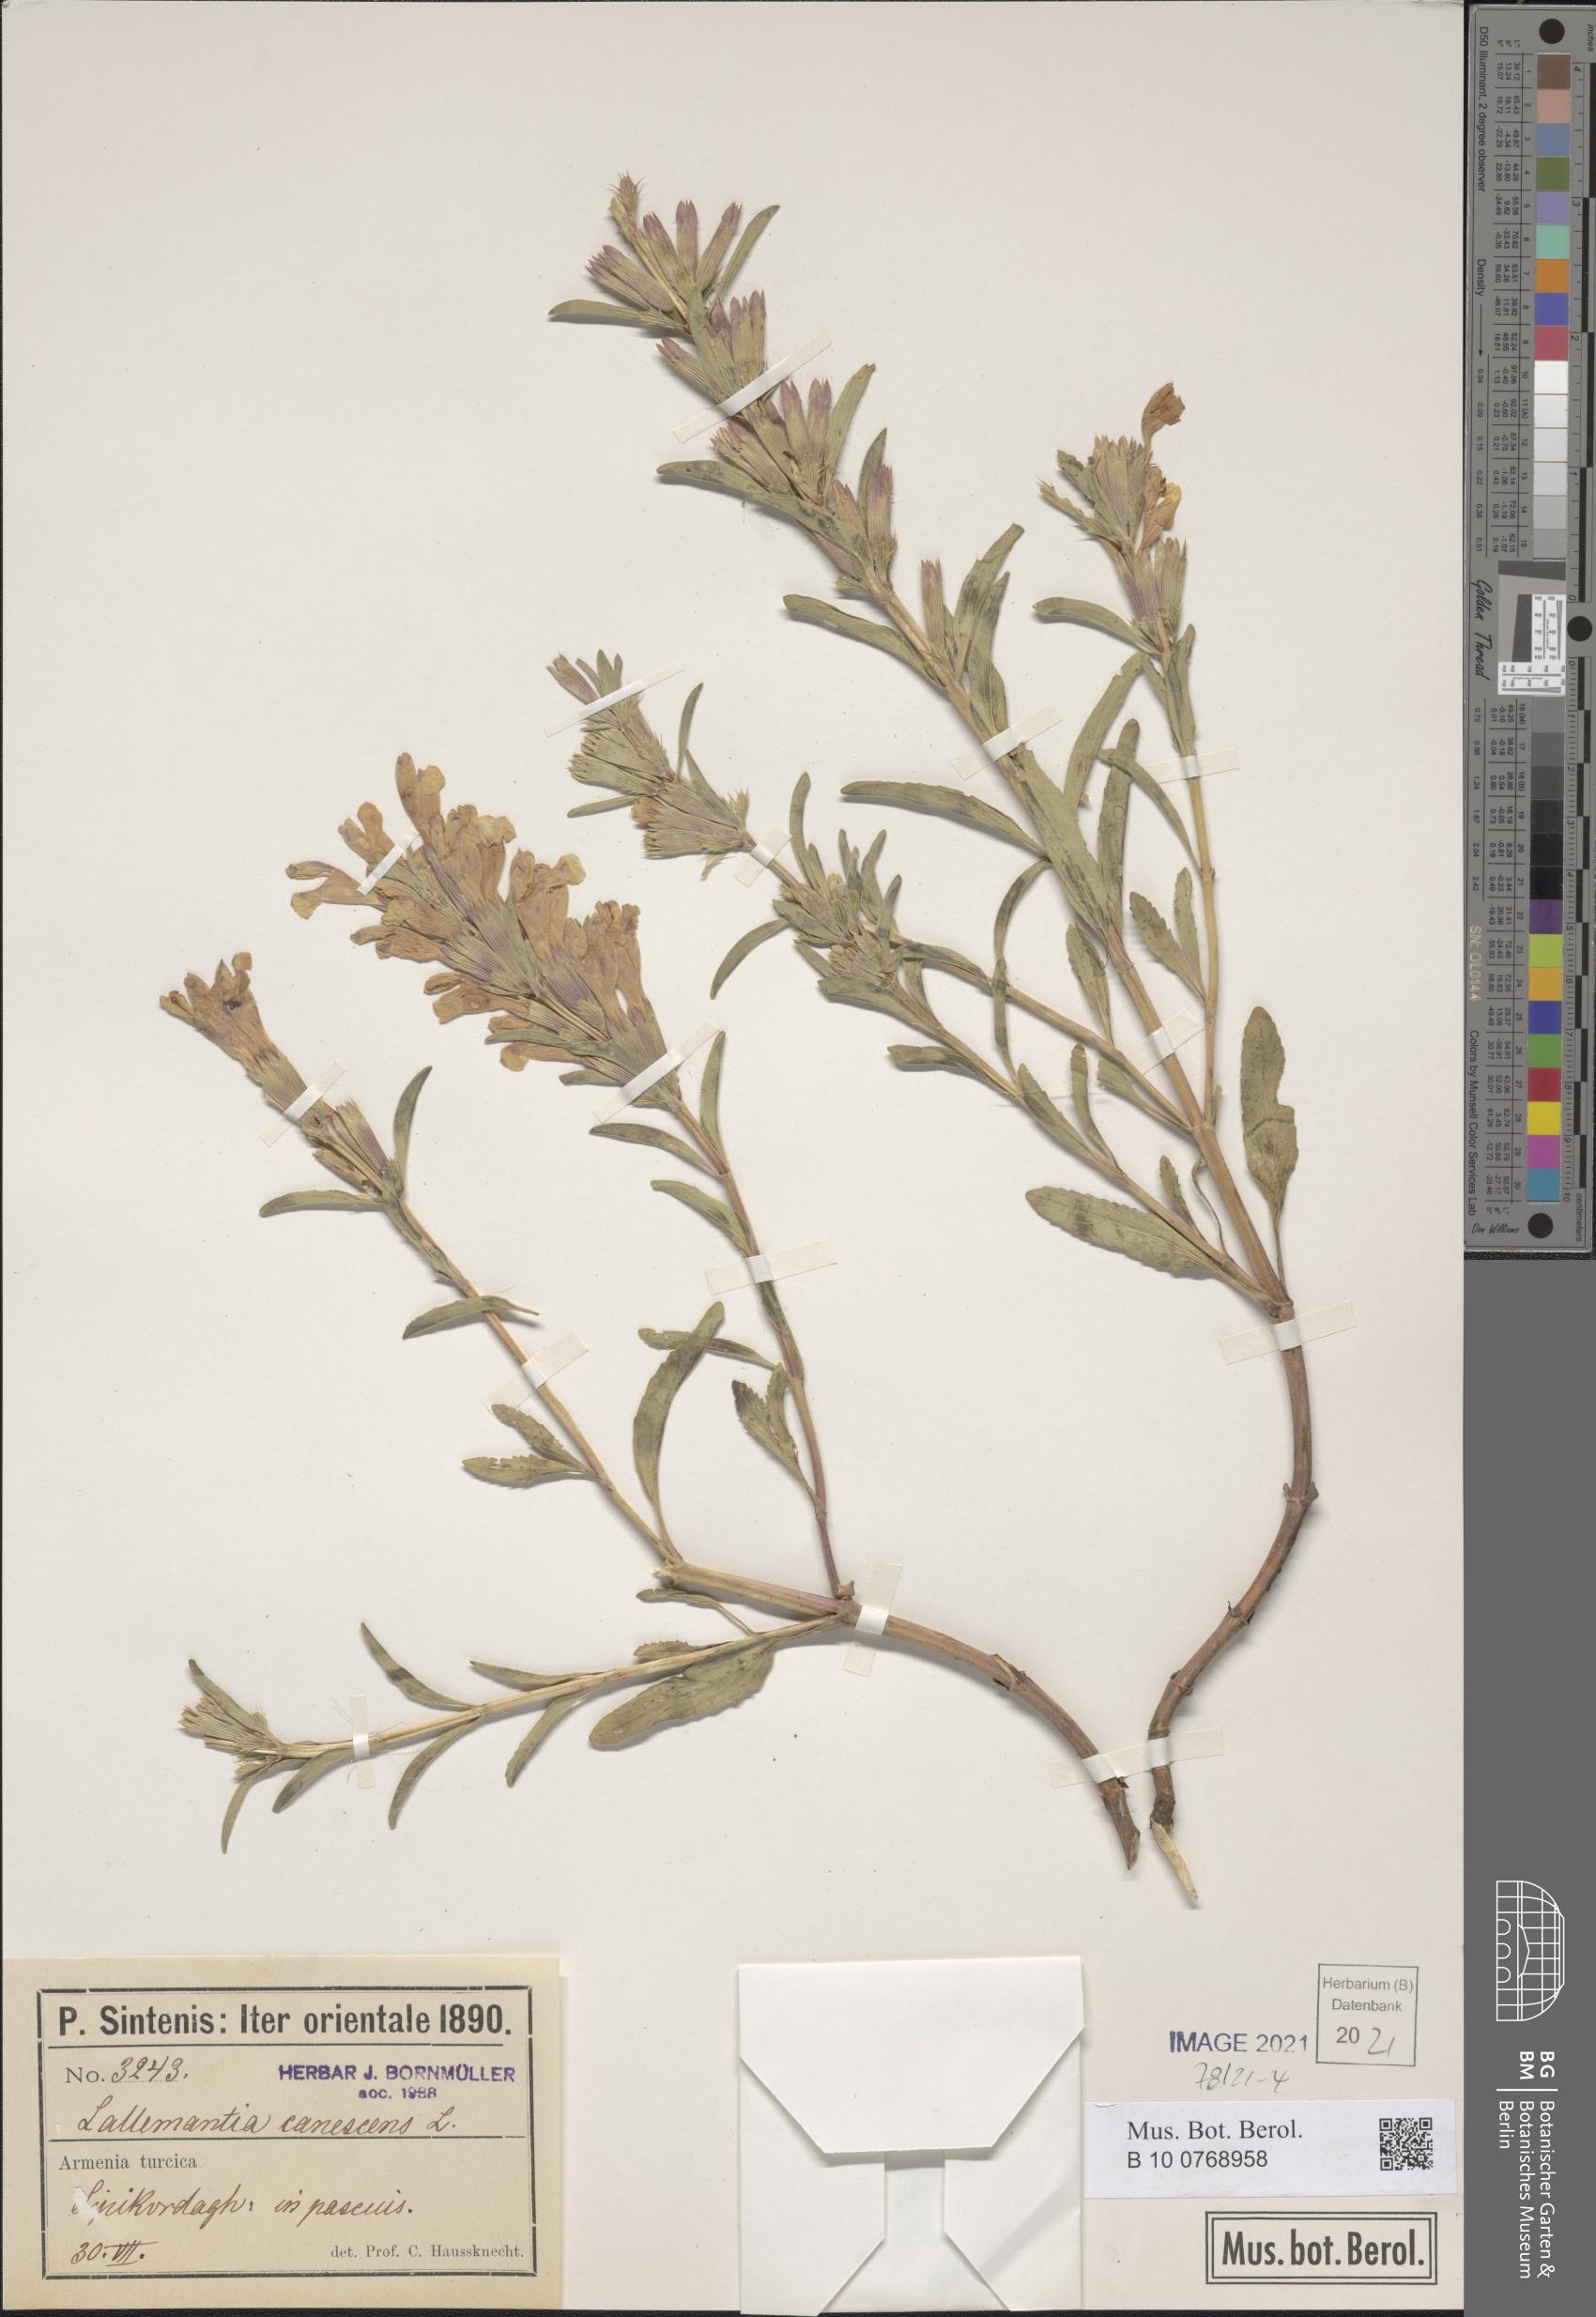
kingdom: Plantae
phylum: Tracheophyta
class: Magnoliopsida
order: Lamiales
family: Lamiaceae
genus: Lallemantia
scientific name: Lallemantia canescens
